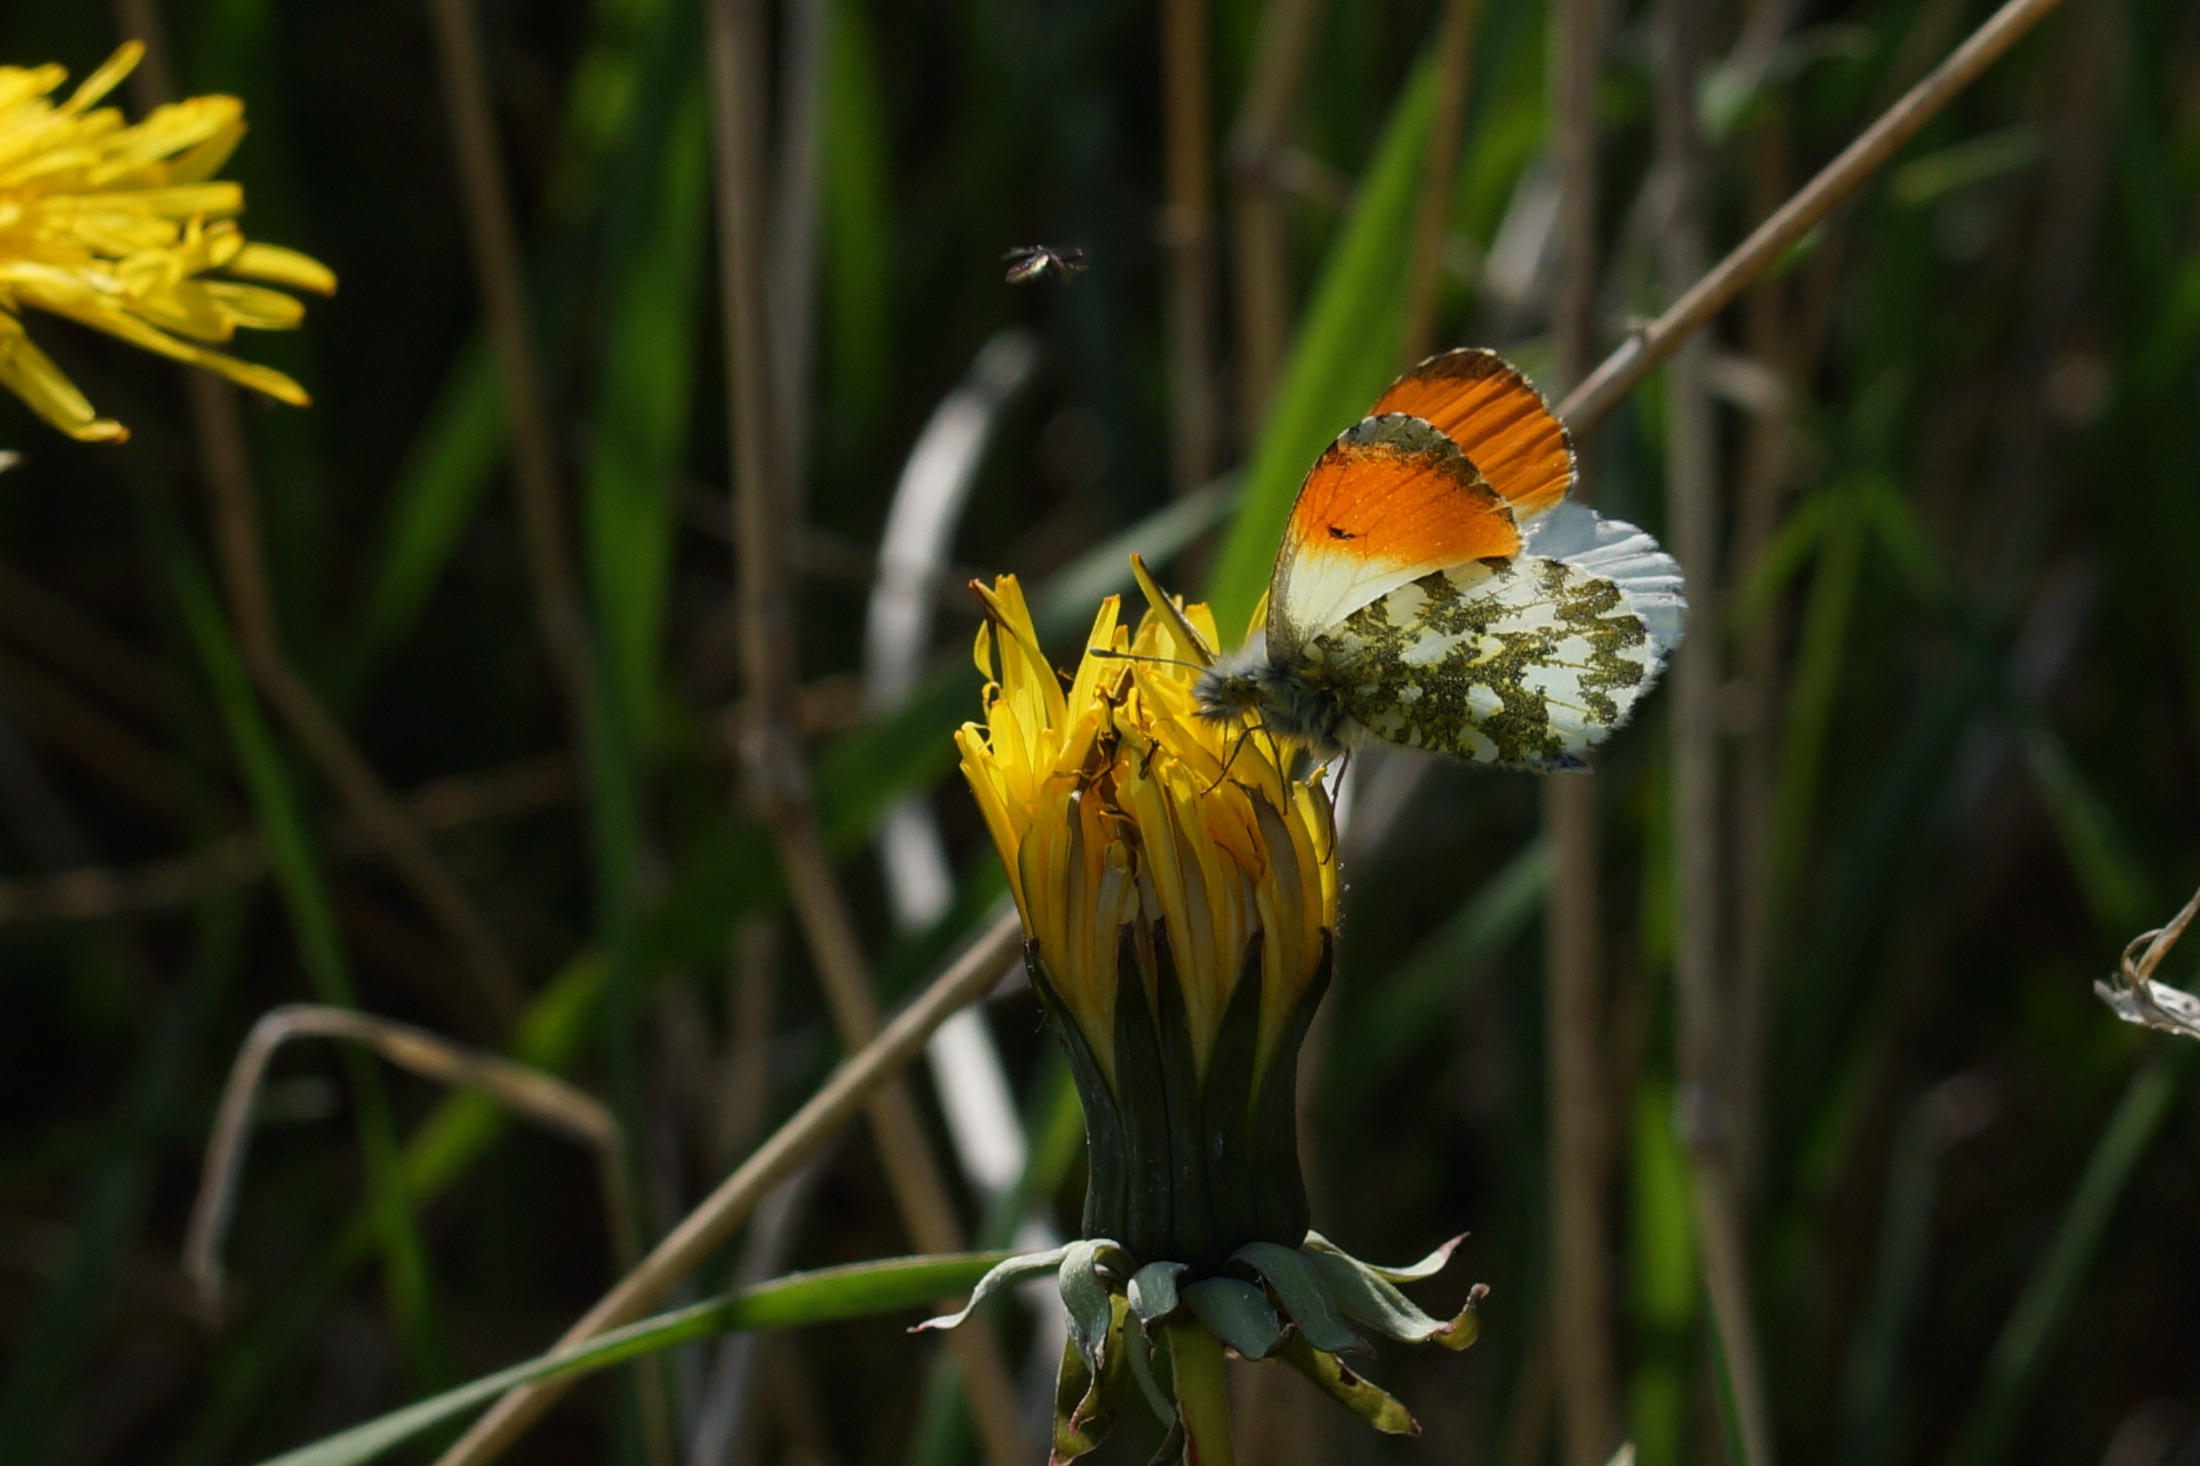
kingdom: Animalia
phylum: Arthropoda
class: Insecta
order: Lepidoptera
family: Pieridae
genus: Anthocharis
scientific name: Anthocharis cardamines
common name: Aurora
